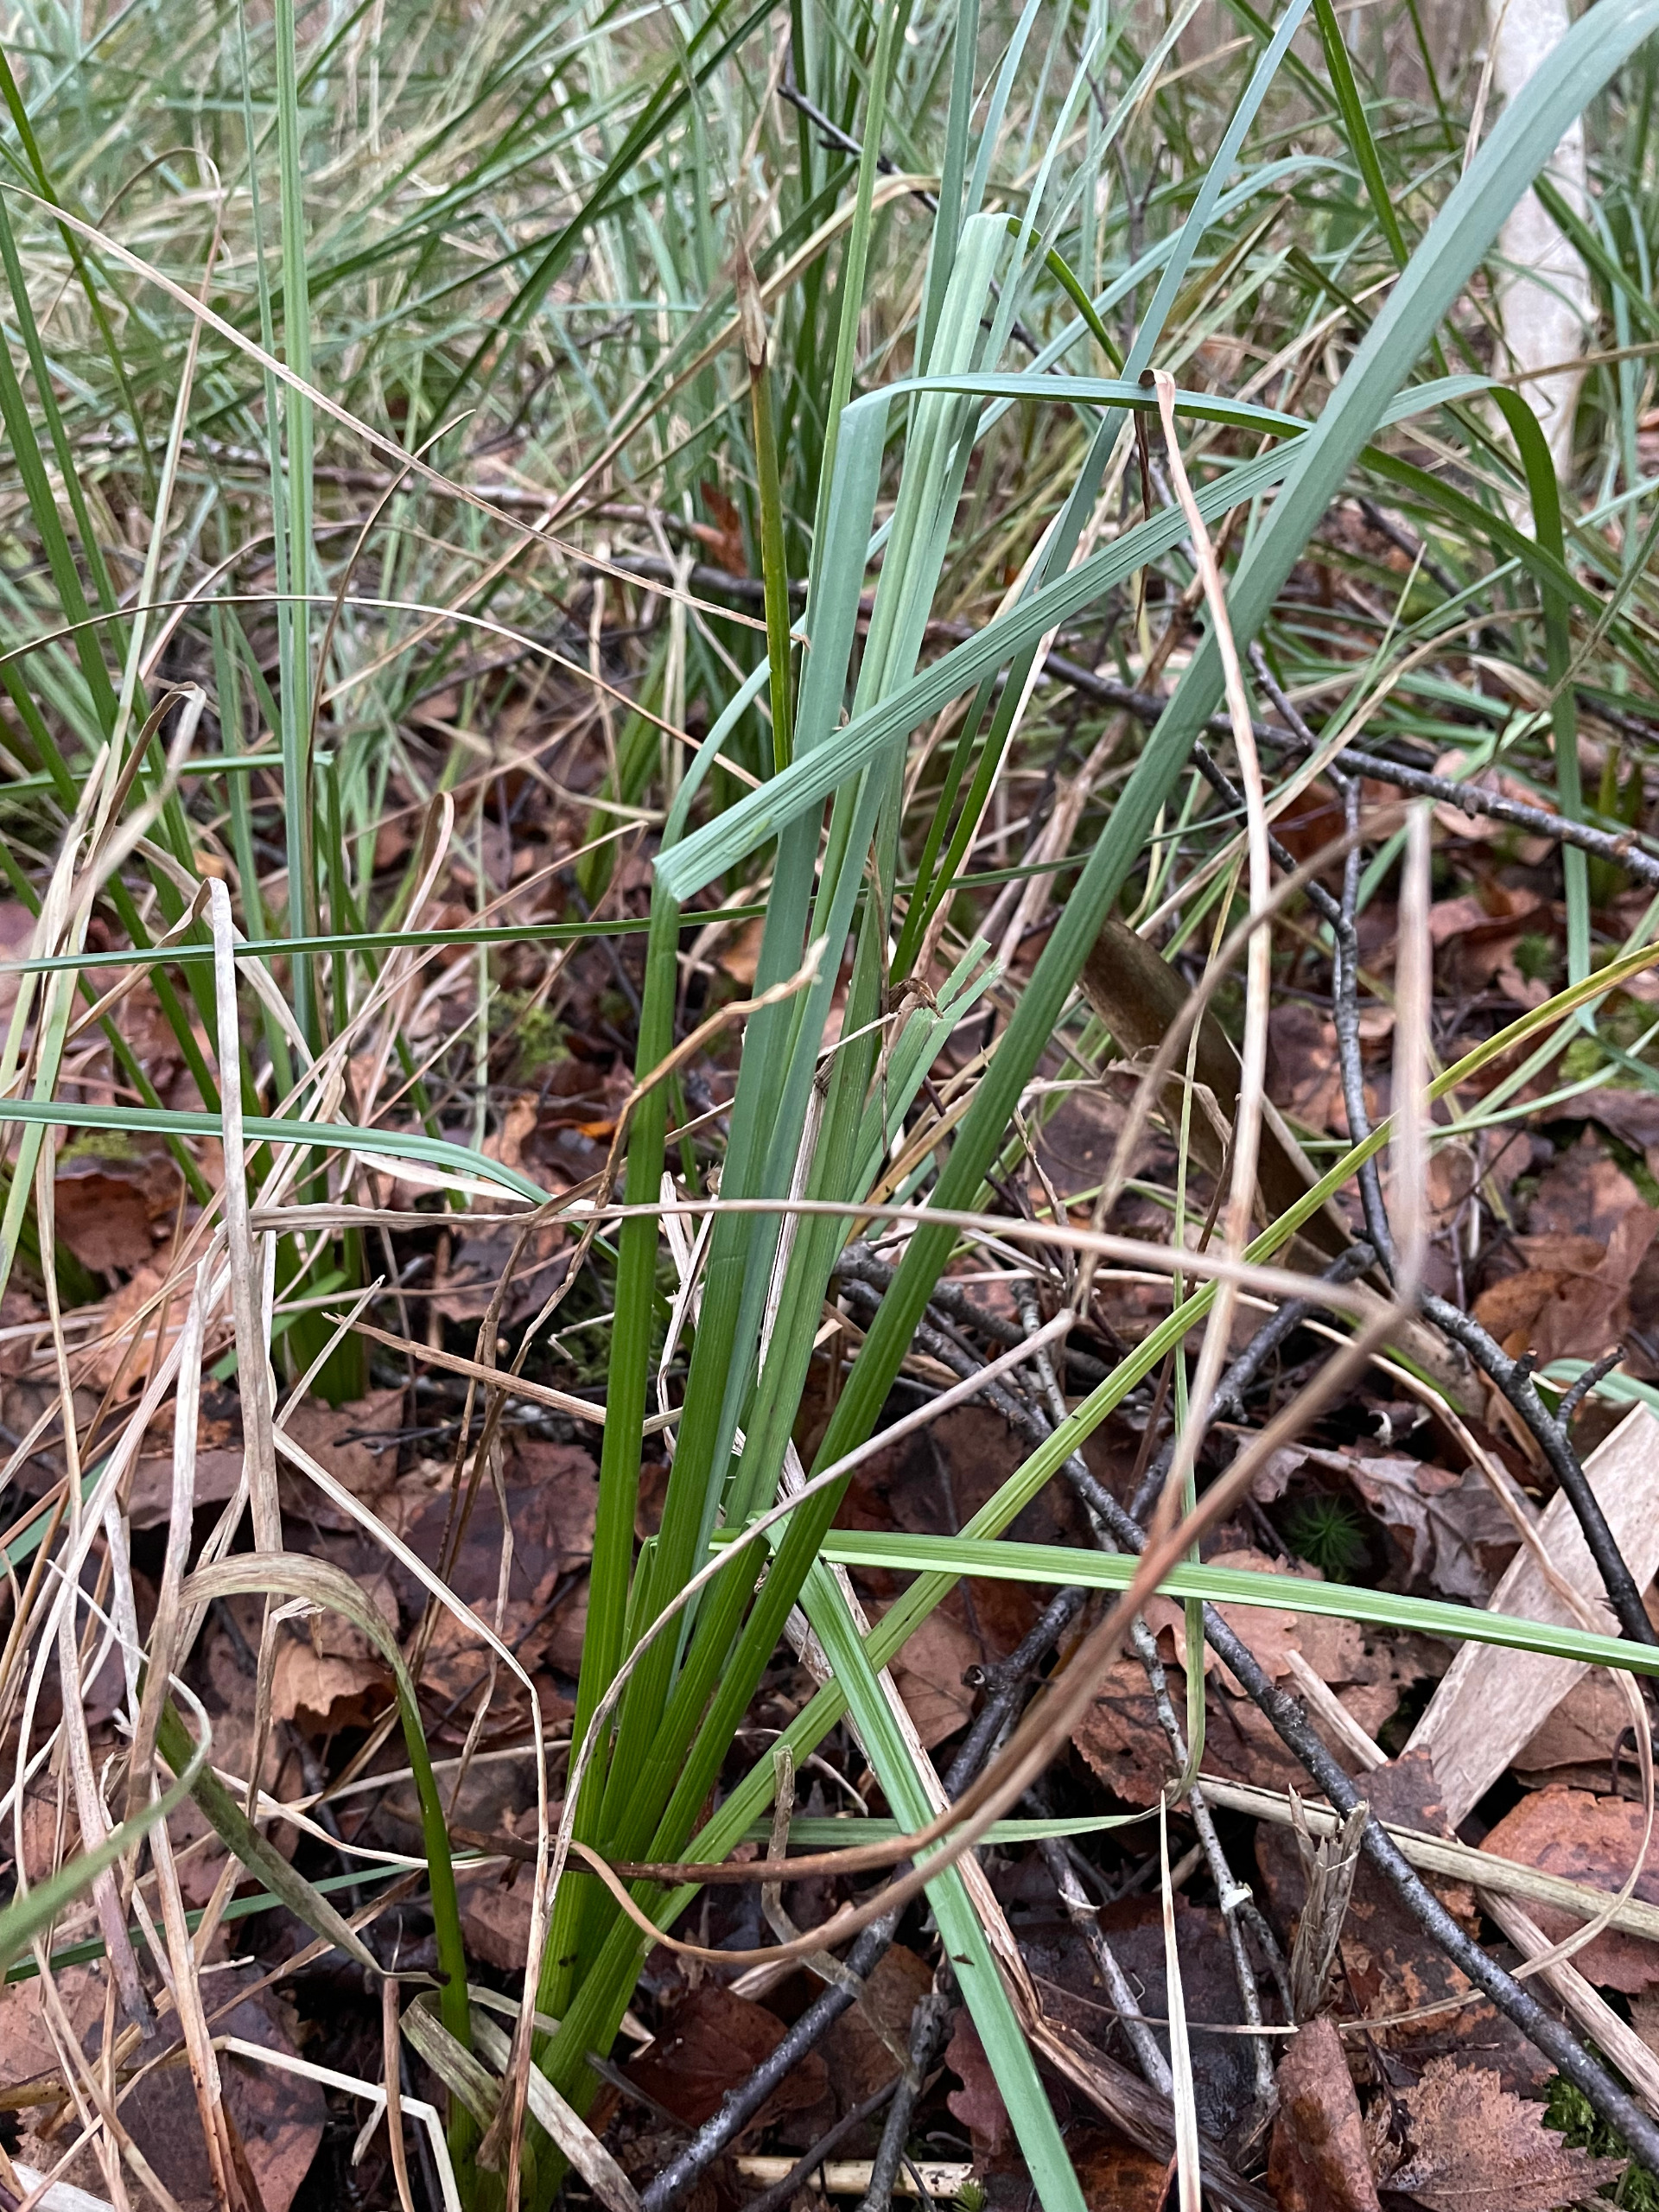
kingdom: Plantae
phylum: Tracheophyta
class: Liliopsida
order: Poales
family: Cyperaceae
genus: Carex
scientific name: Carex rostrata
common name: Næb-star
